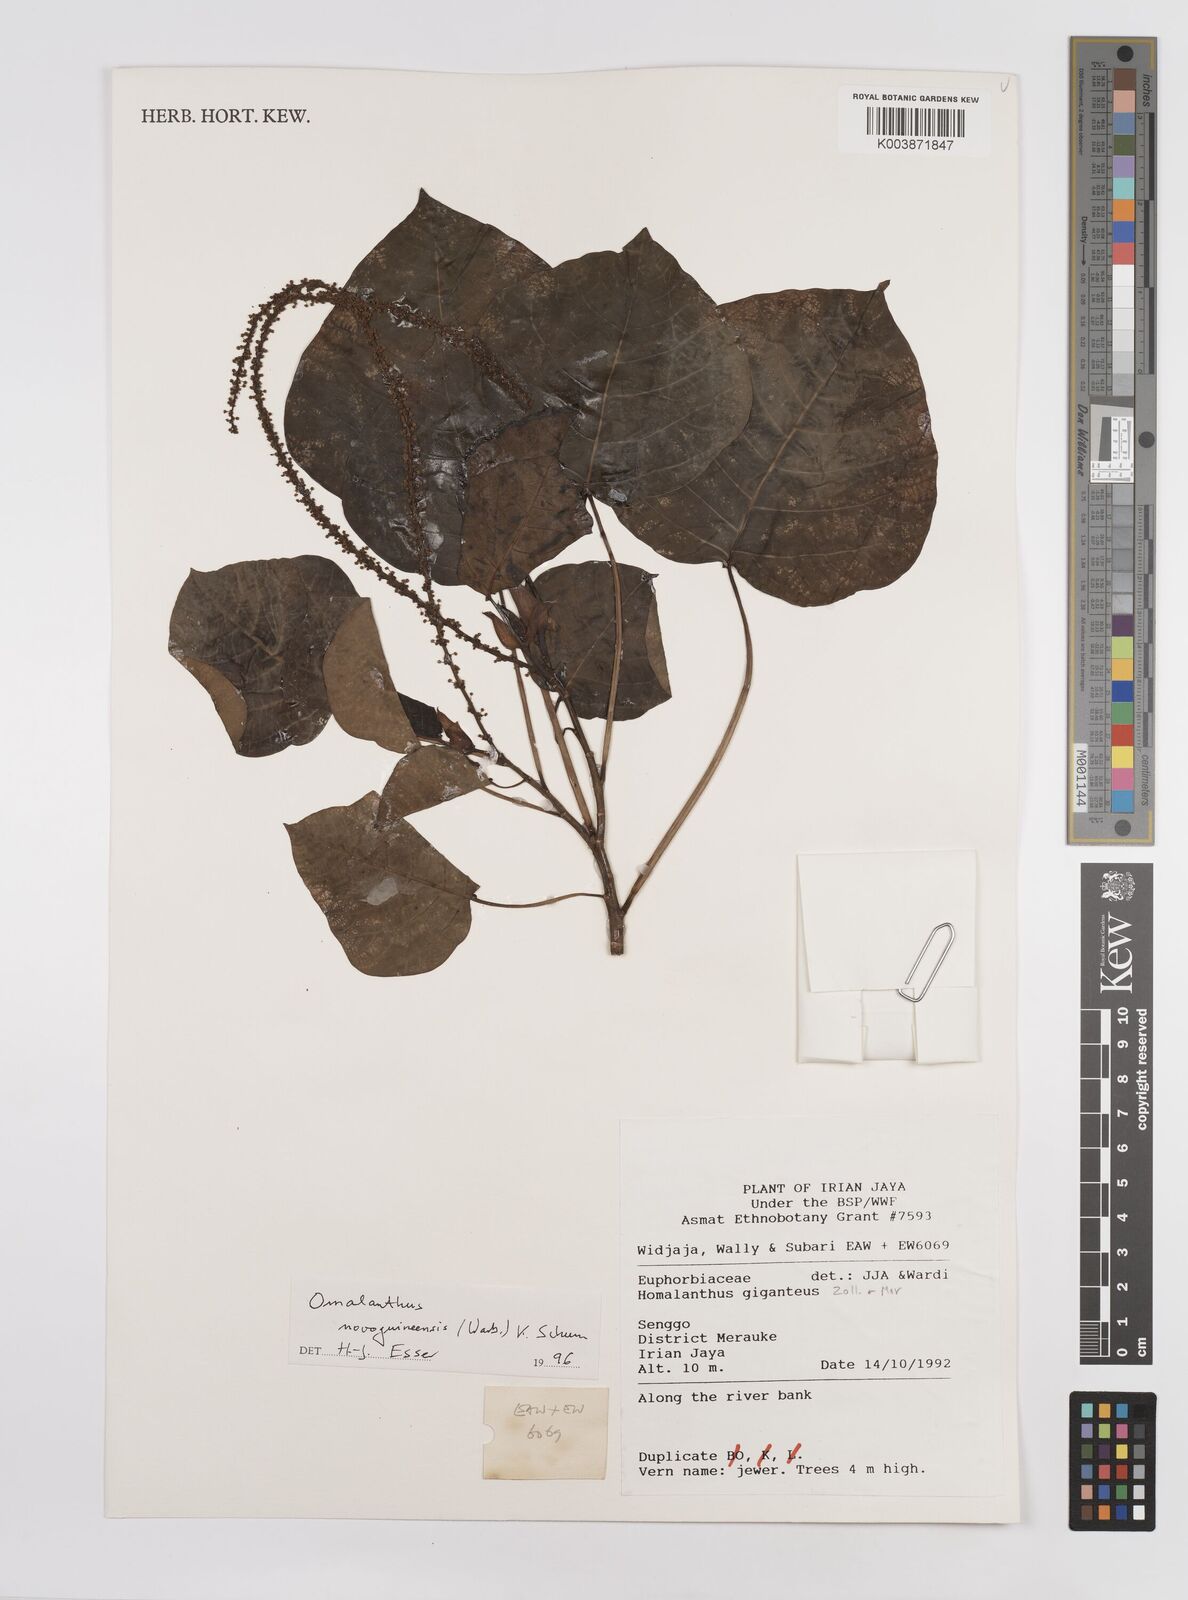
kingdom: Plantae
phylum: Tracheophyta
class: Magnoliopsida
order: Malpighiales
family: Euphorbiaceae
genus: Homalanthus
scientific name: Homalanthus novoguineensis
